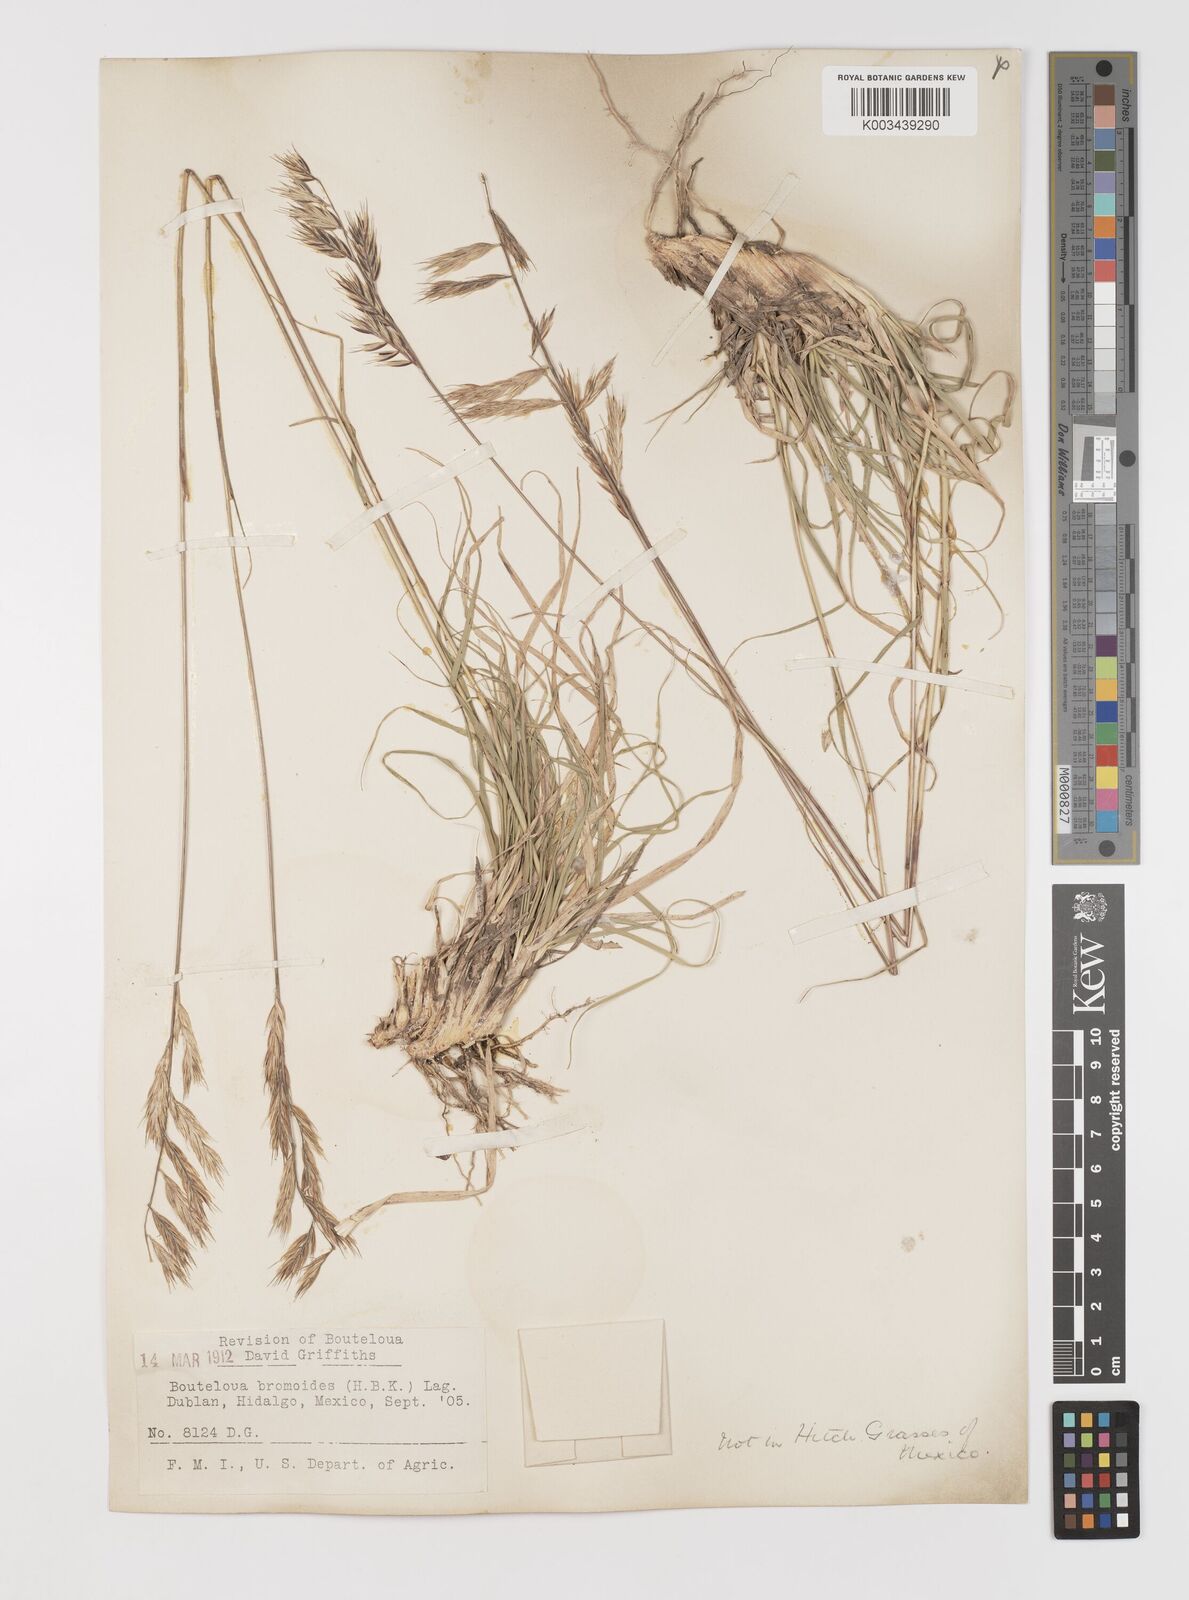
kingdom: Plantae
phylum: Tracheophyta
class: Liliopsida
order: Poales
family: Poaceae
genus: Bouteloua
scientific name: Bouteloua repens
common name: Slender grama
